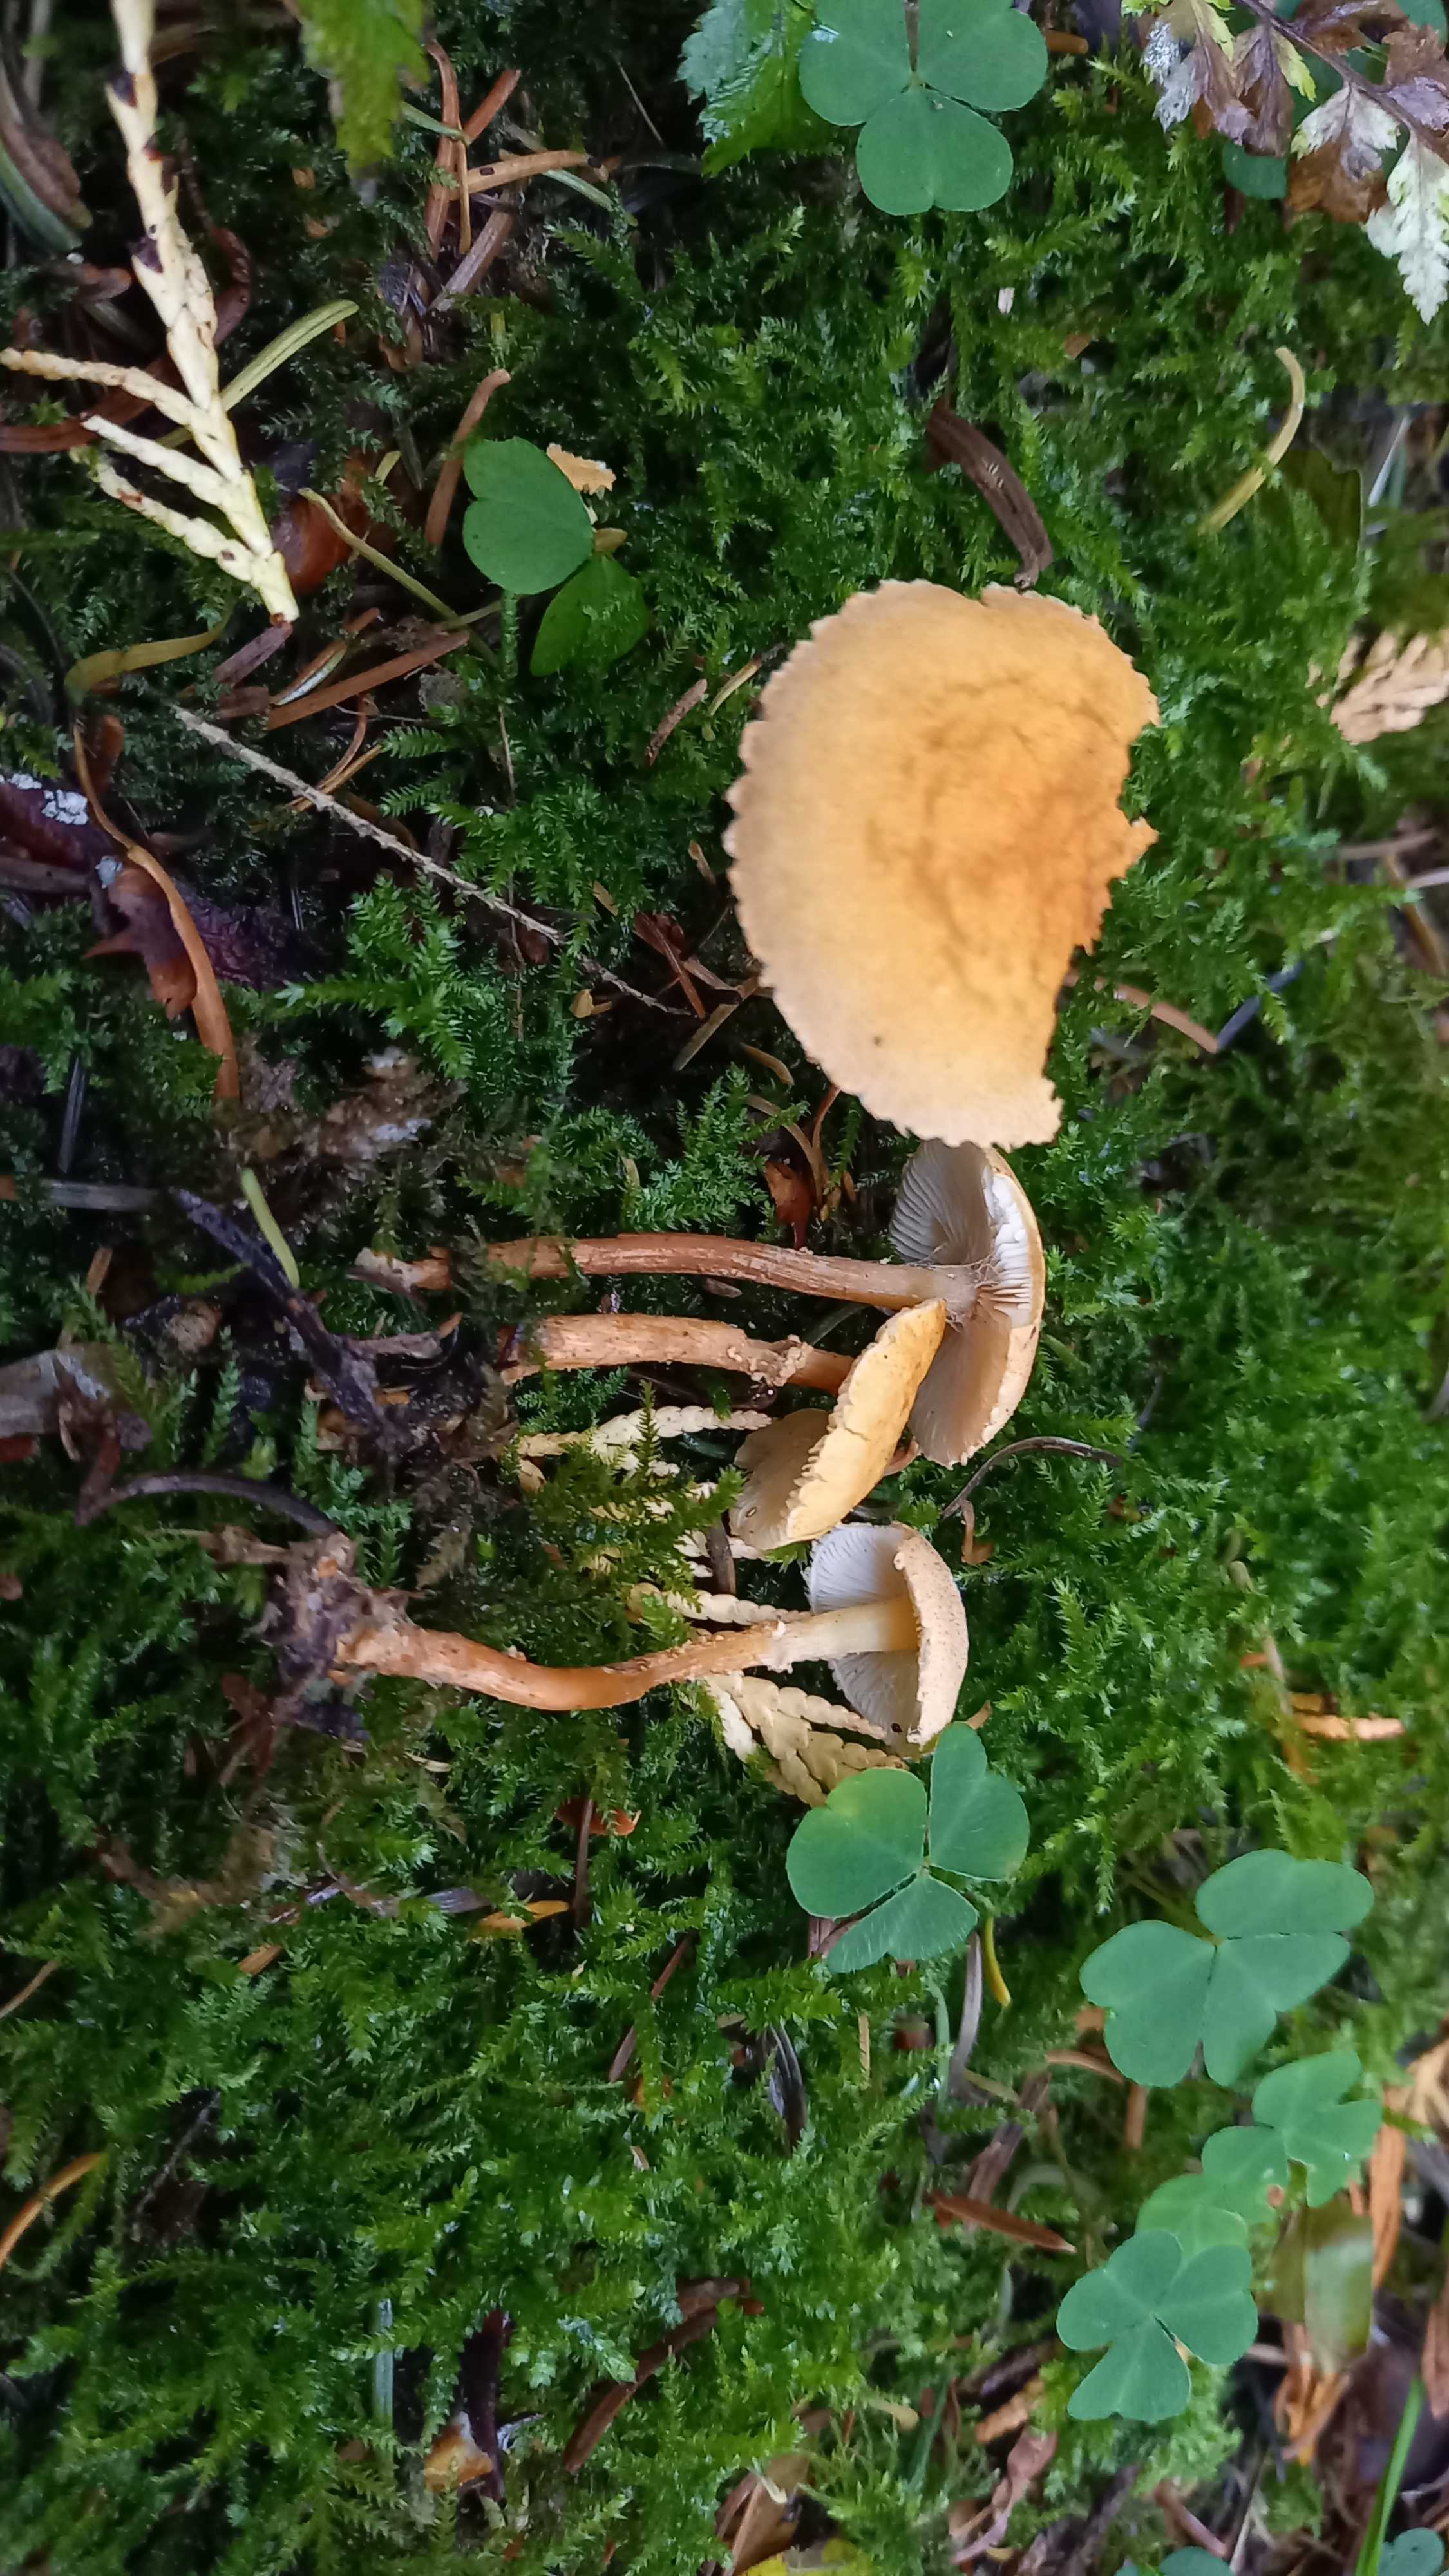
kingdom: Fungi
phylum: Basidiomycota
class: Agaricomycetes
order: Agaricales
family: Tricholomataceae
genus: Cystoderma
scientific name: Cystoderma amianthinum
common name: okkergul grynhat
